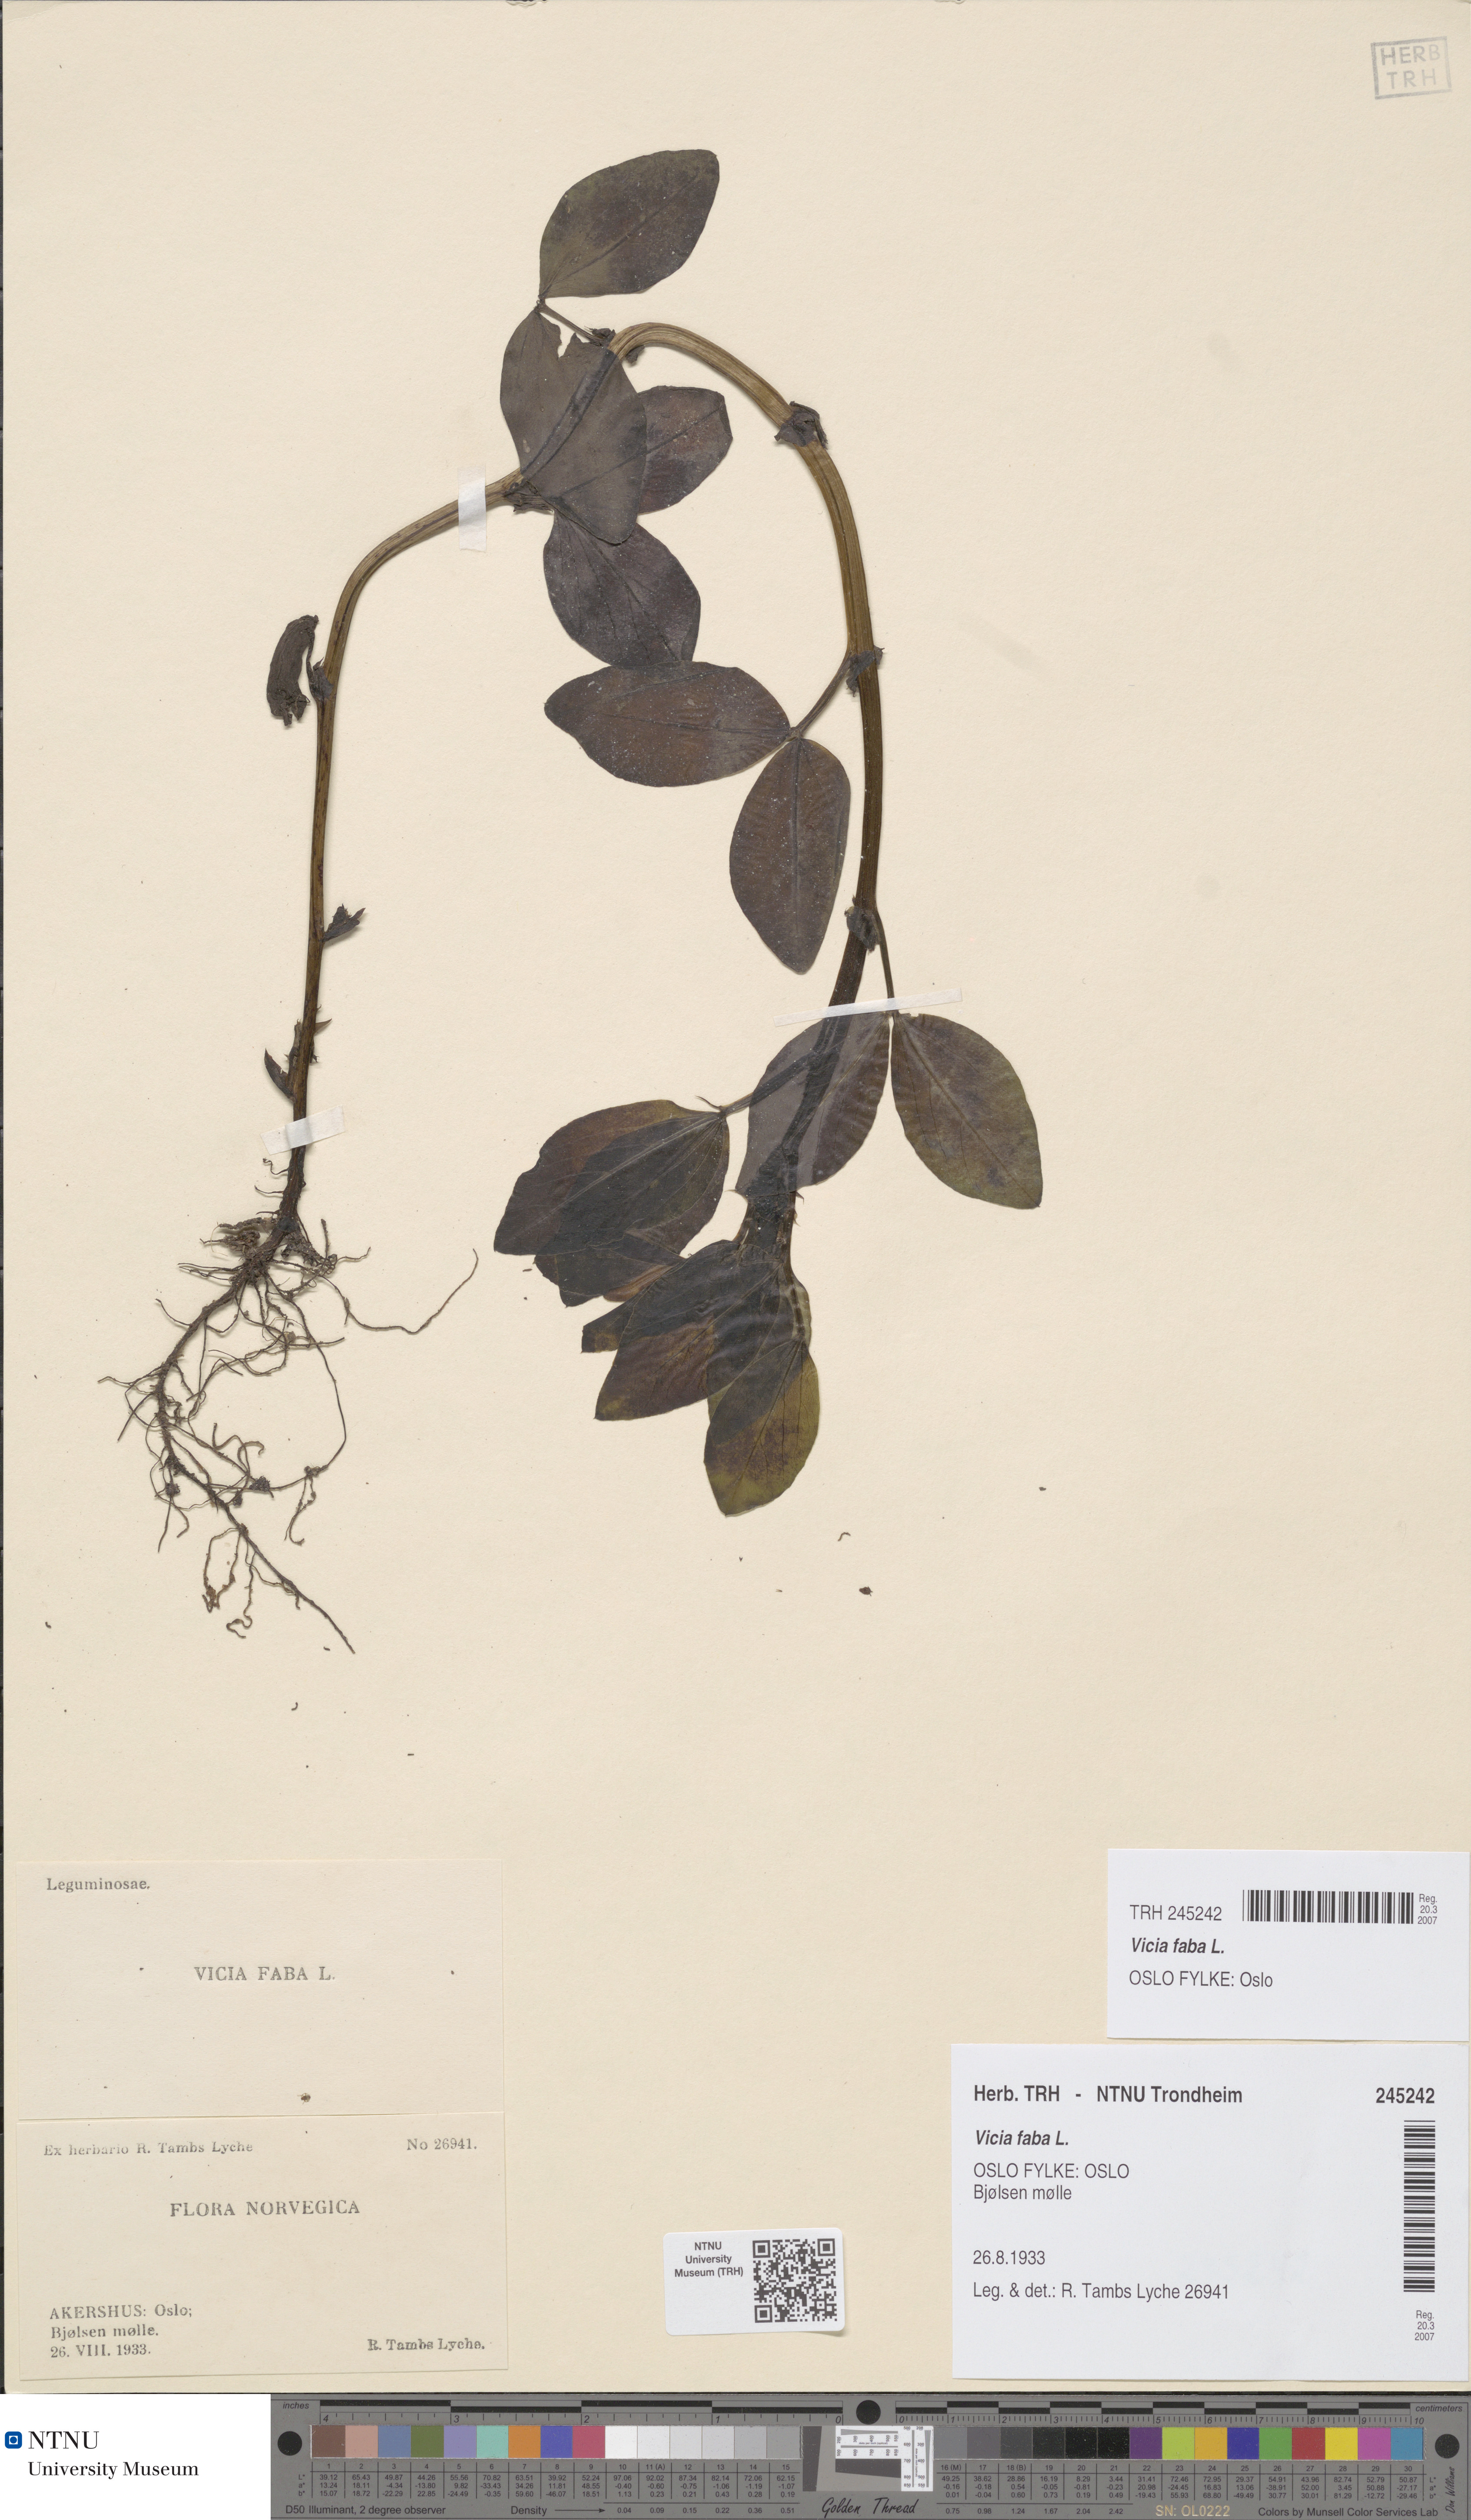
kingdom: Plantae
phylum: Tracheophyta
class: Magnoliopsida
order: Fabales
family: Fabaceae
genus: Vicia
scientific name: Vicia faba
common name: Broad bean
